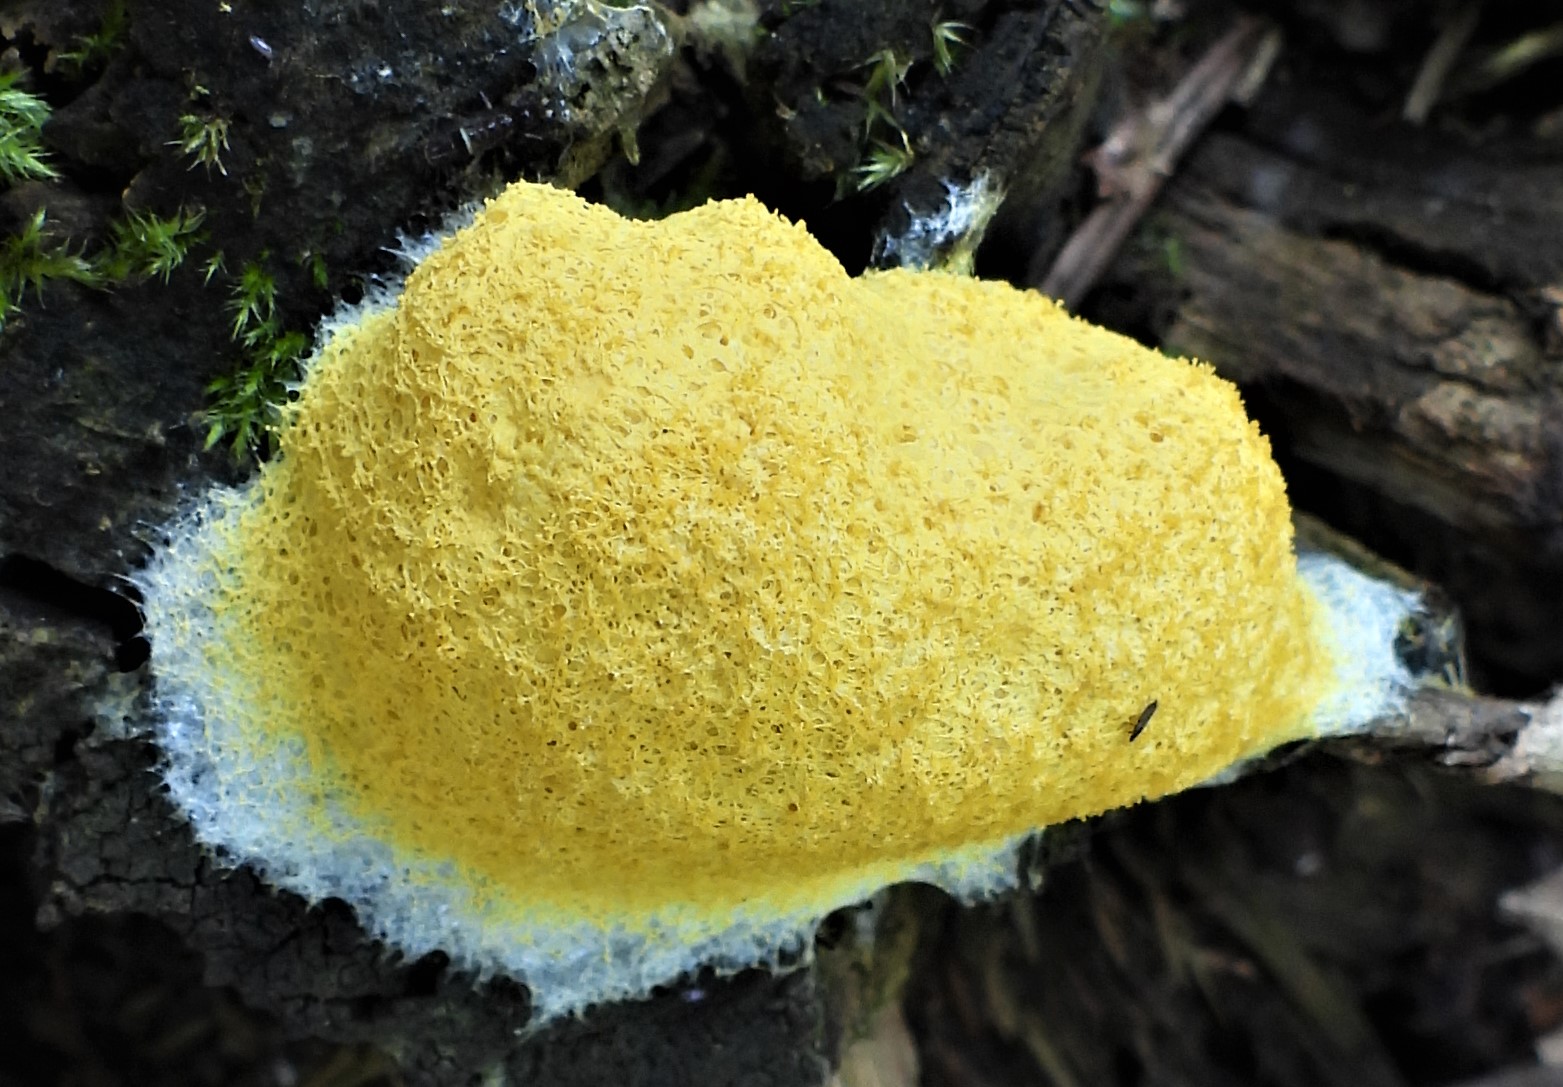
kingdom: Protozoa
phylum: Mycetozoa
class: Myxomycetes
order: Physarales
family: Physaraceae
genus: Fuligo
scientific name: Fuligo septica
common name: gul troldsmør
